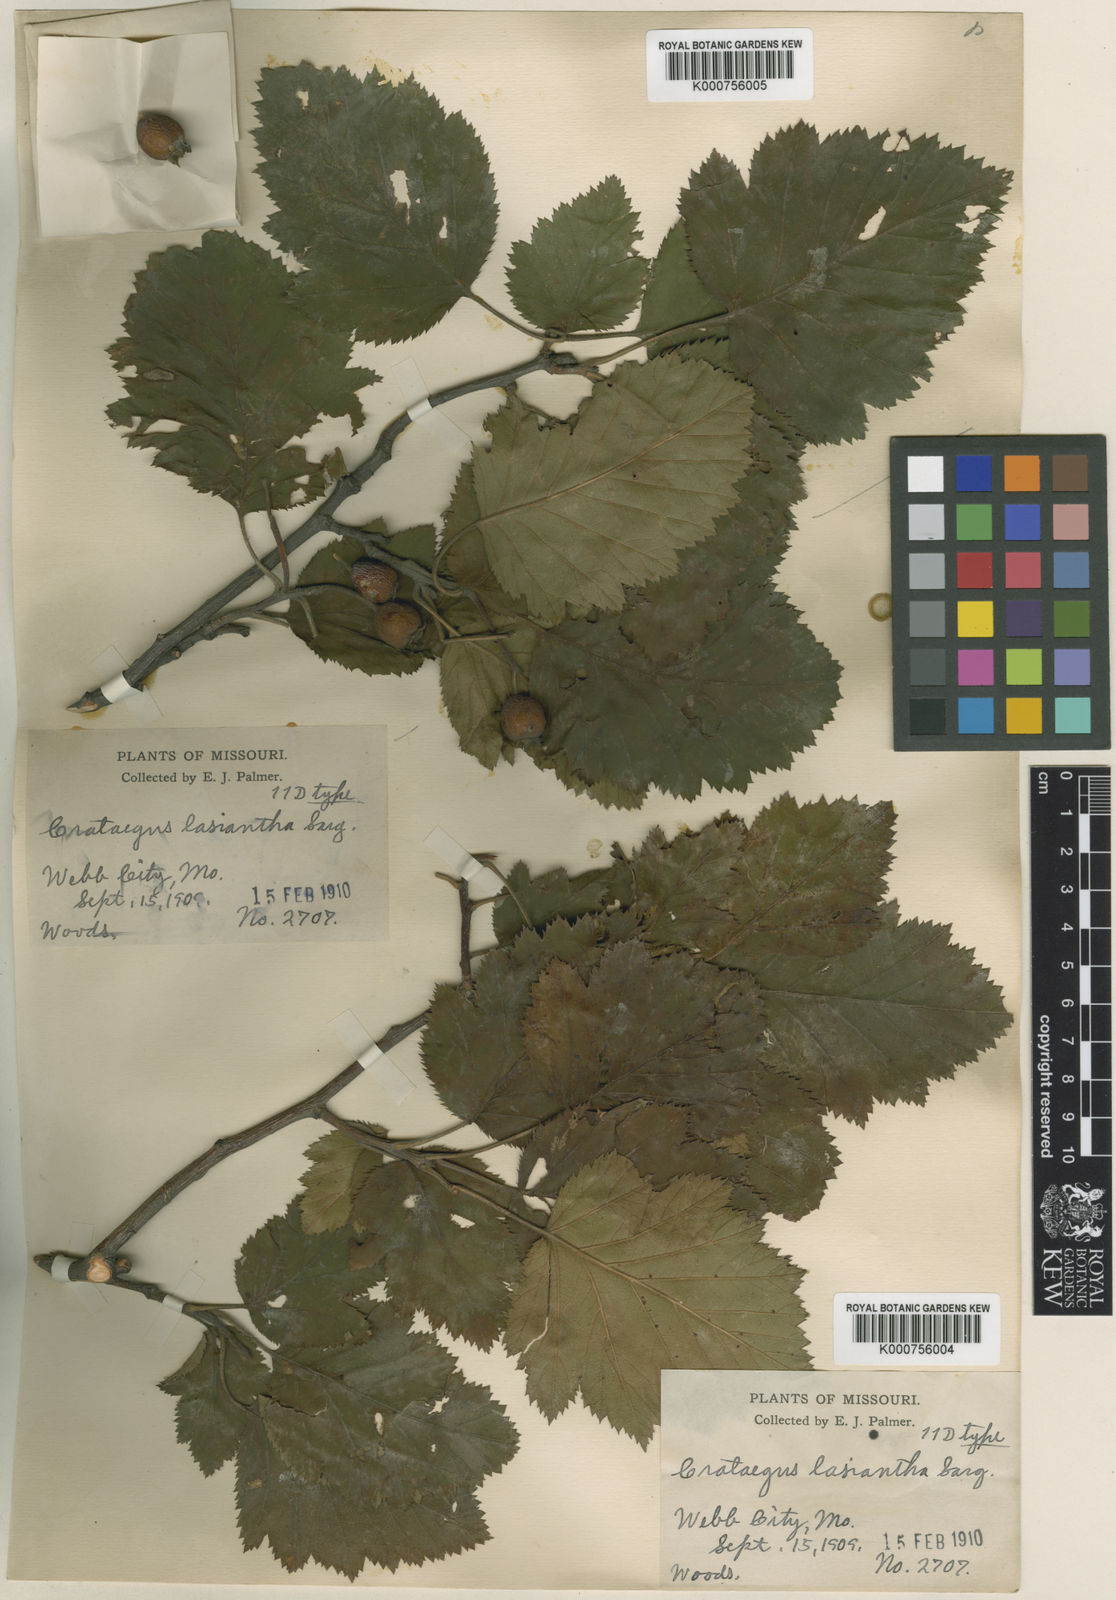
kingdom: Plantae
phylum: Tracheophyta
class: Magnoliopsida
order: Rosales
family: Rosaceae
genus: Crataegus
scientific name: Crataegus lasiantha
